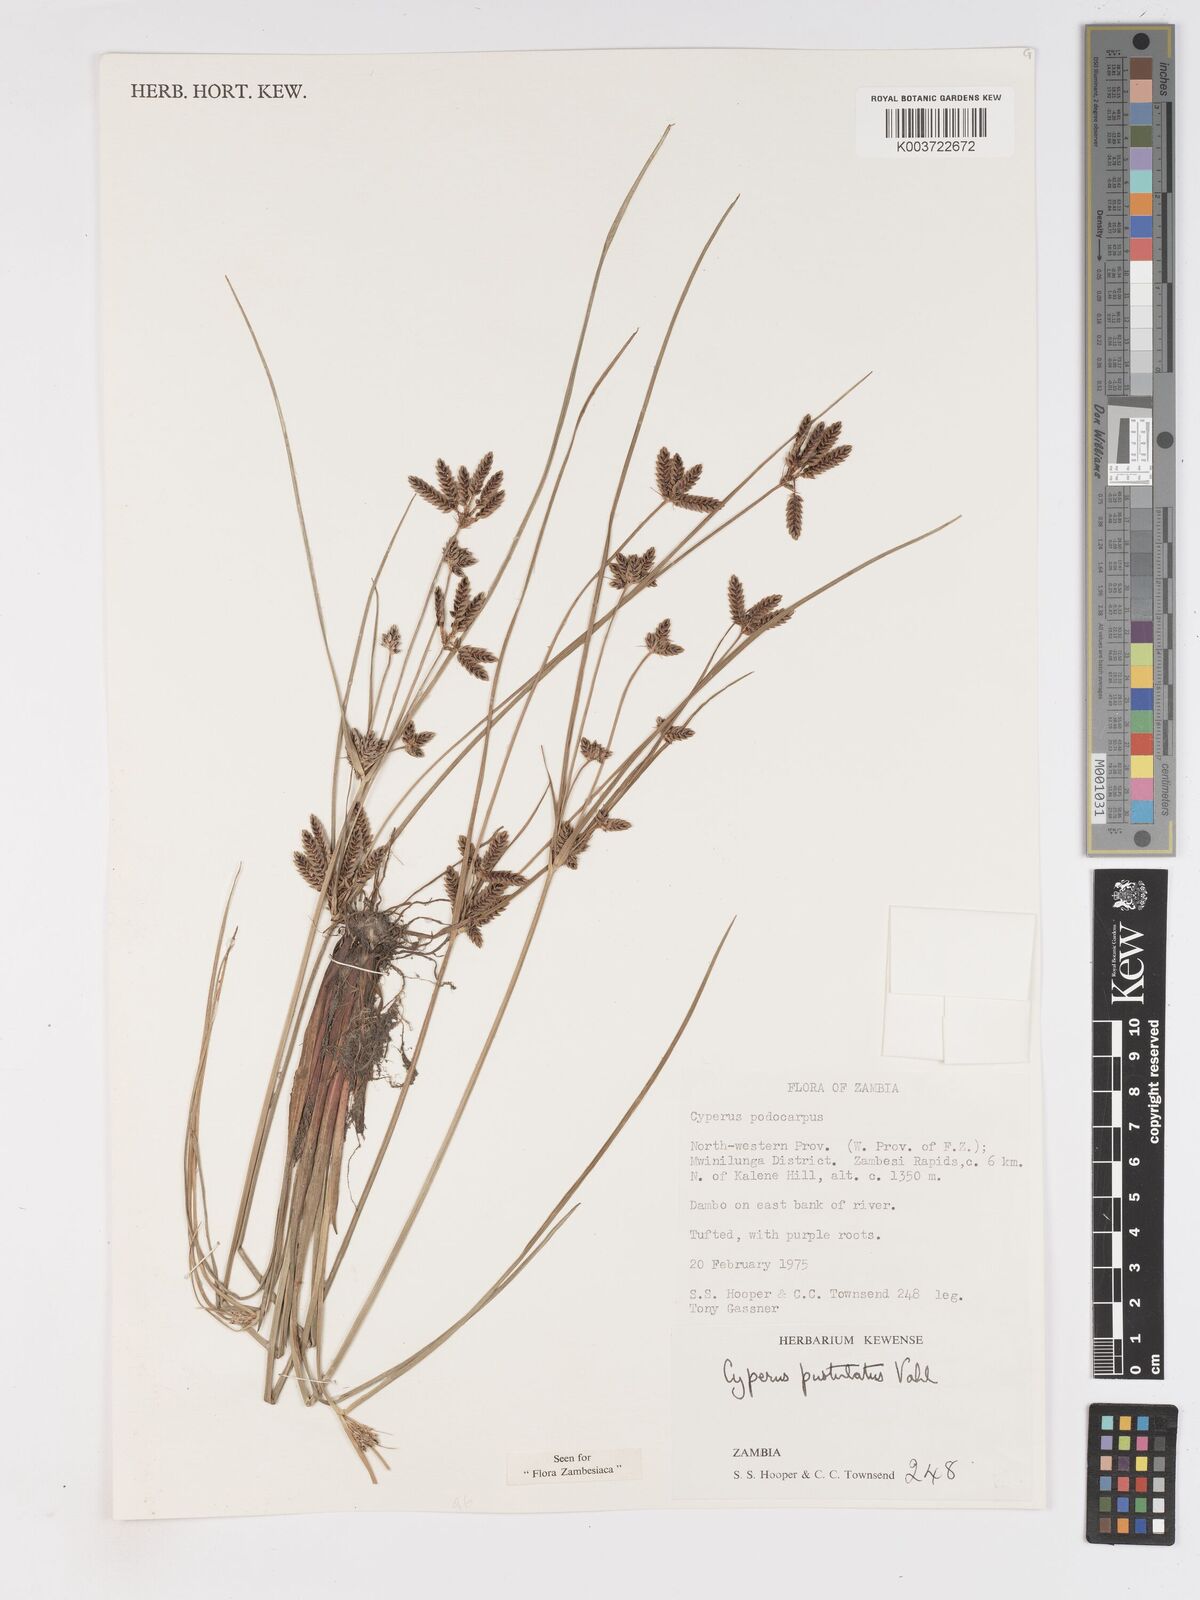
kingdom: Plantae
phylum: Tracheophyta
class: Liliopsida
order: Poales
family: Cyperaceae
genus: Cyperus
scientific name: Cyperus pustulatus
